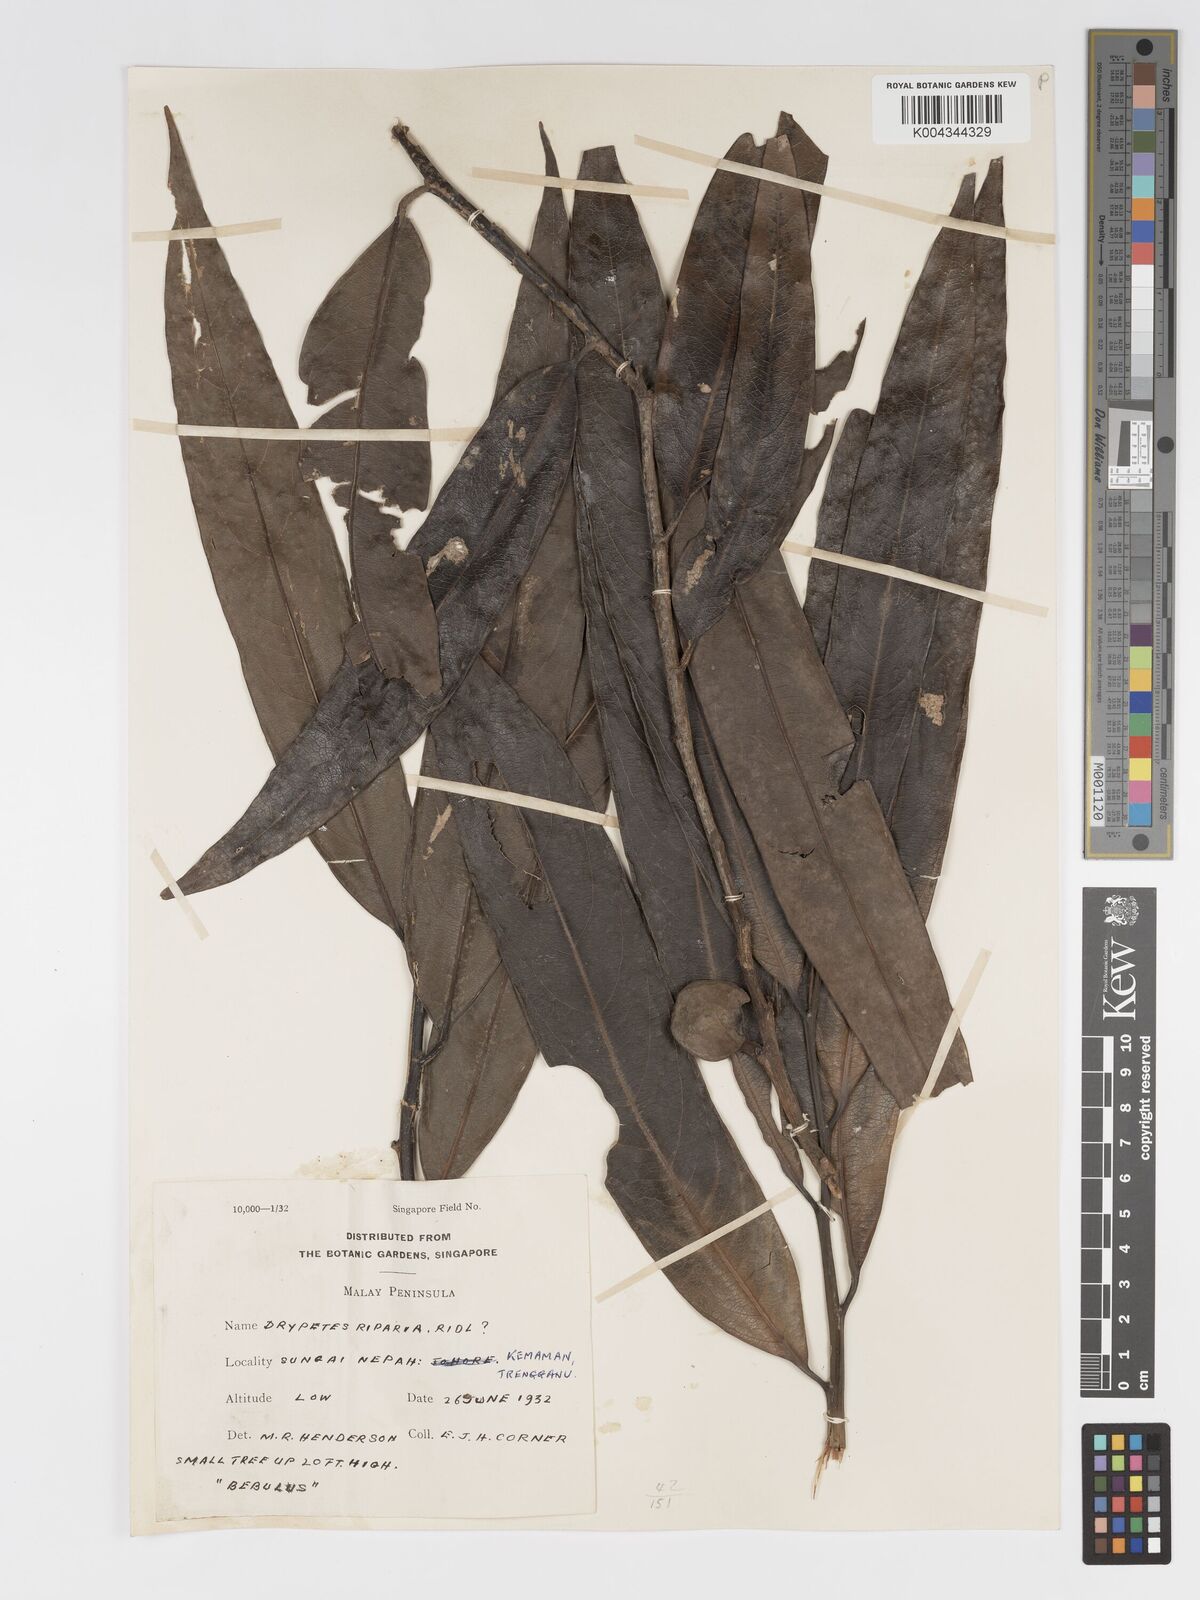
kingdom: Plantae
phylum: Tracheophyta
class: Magnoliopsida
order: Malpighiales
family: Putranjivaceae
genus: Drypetes
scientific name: Drypetes riparia
